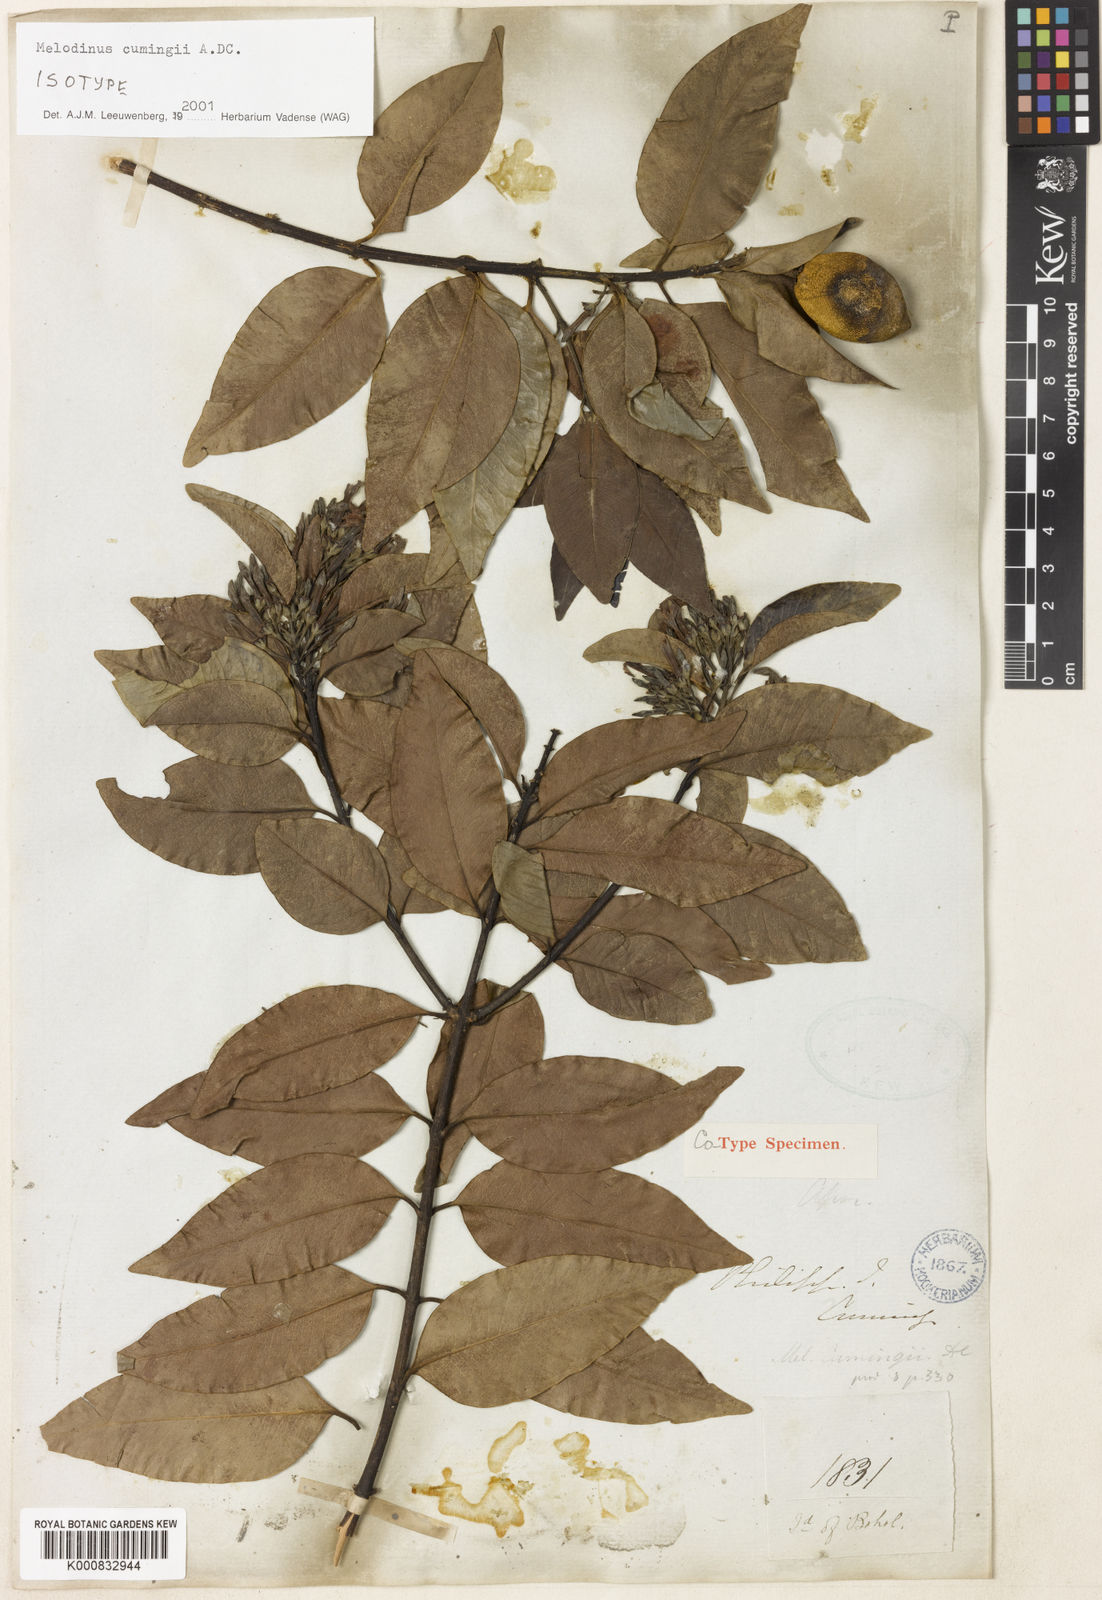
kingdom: Plantae
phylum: Tracheophyta
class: Magnoliopsida
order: Gentianales
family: Apocynaceae
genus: Melodinus
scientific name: Melodinus cumingii
